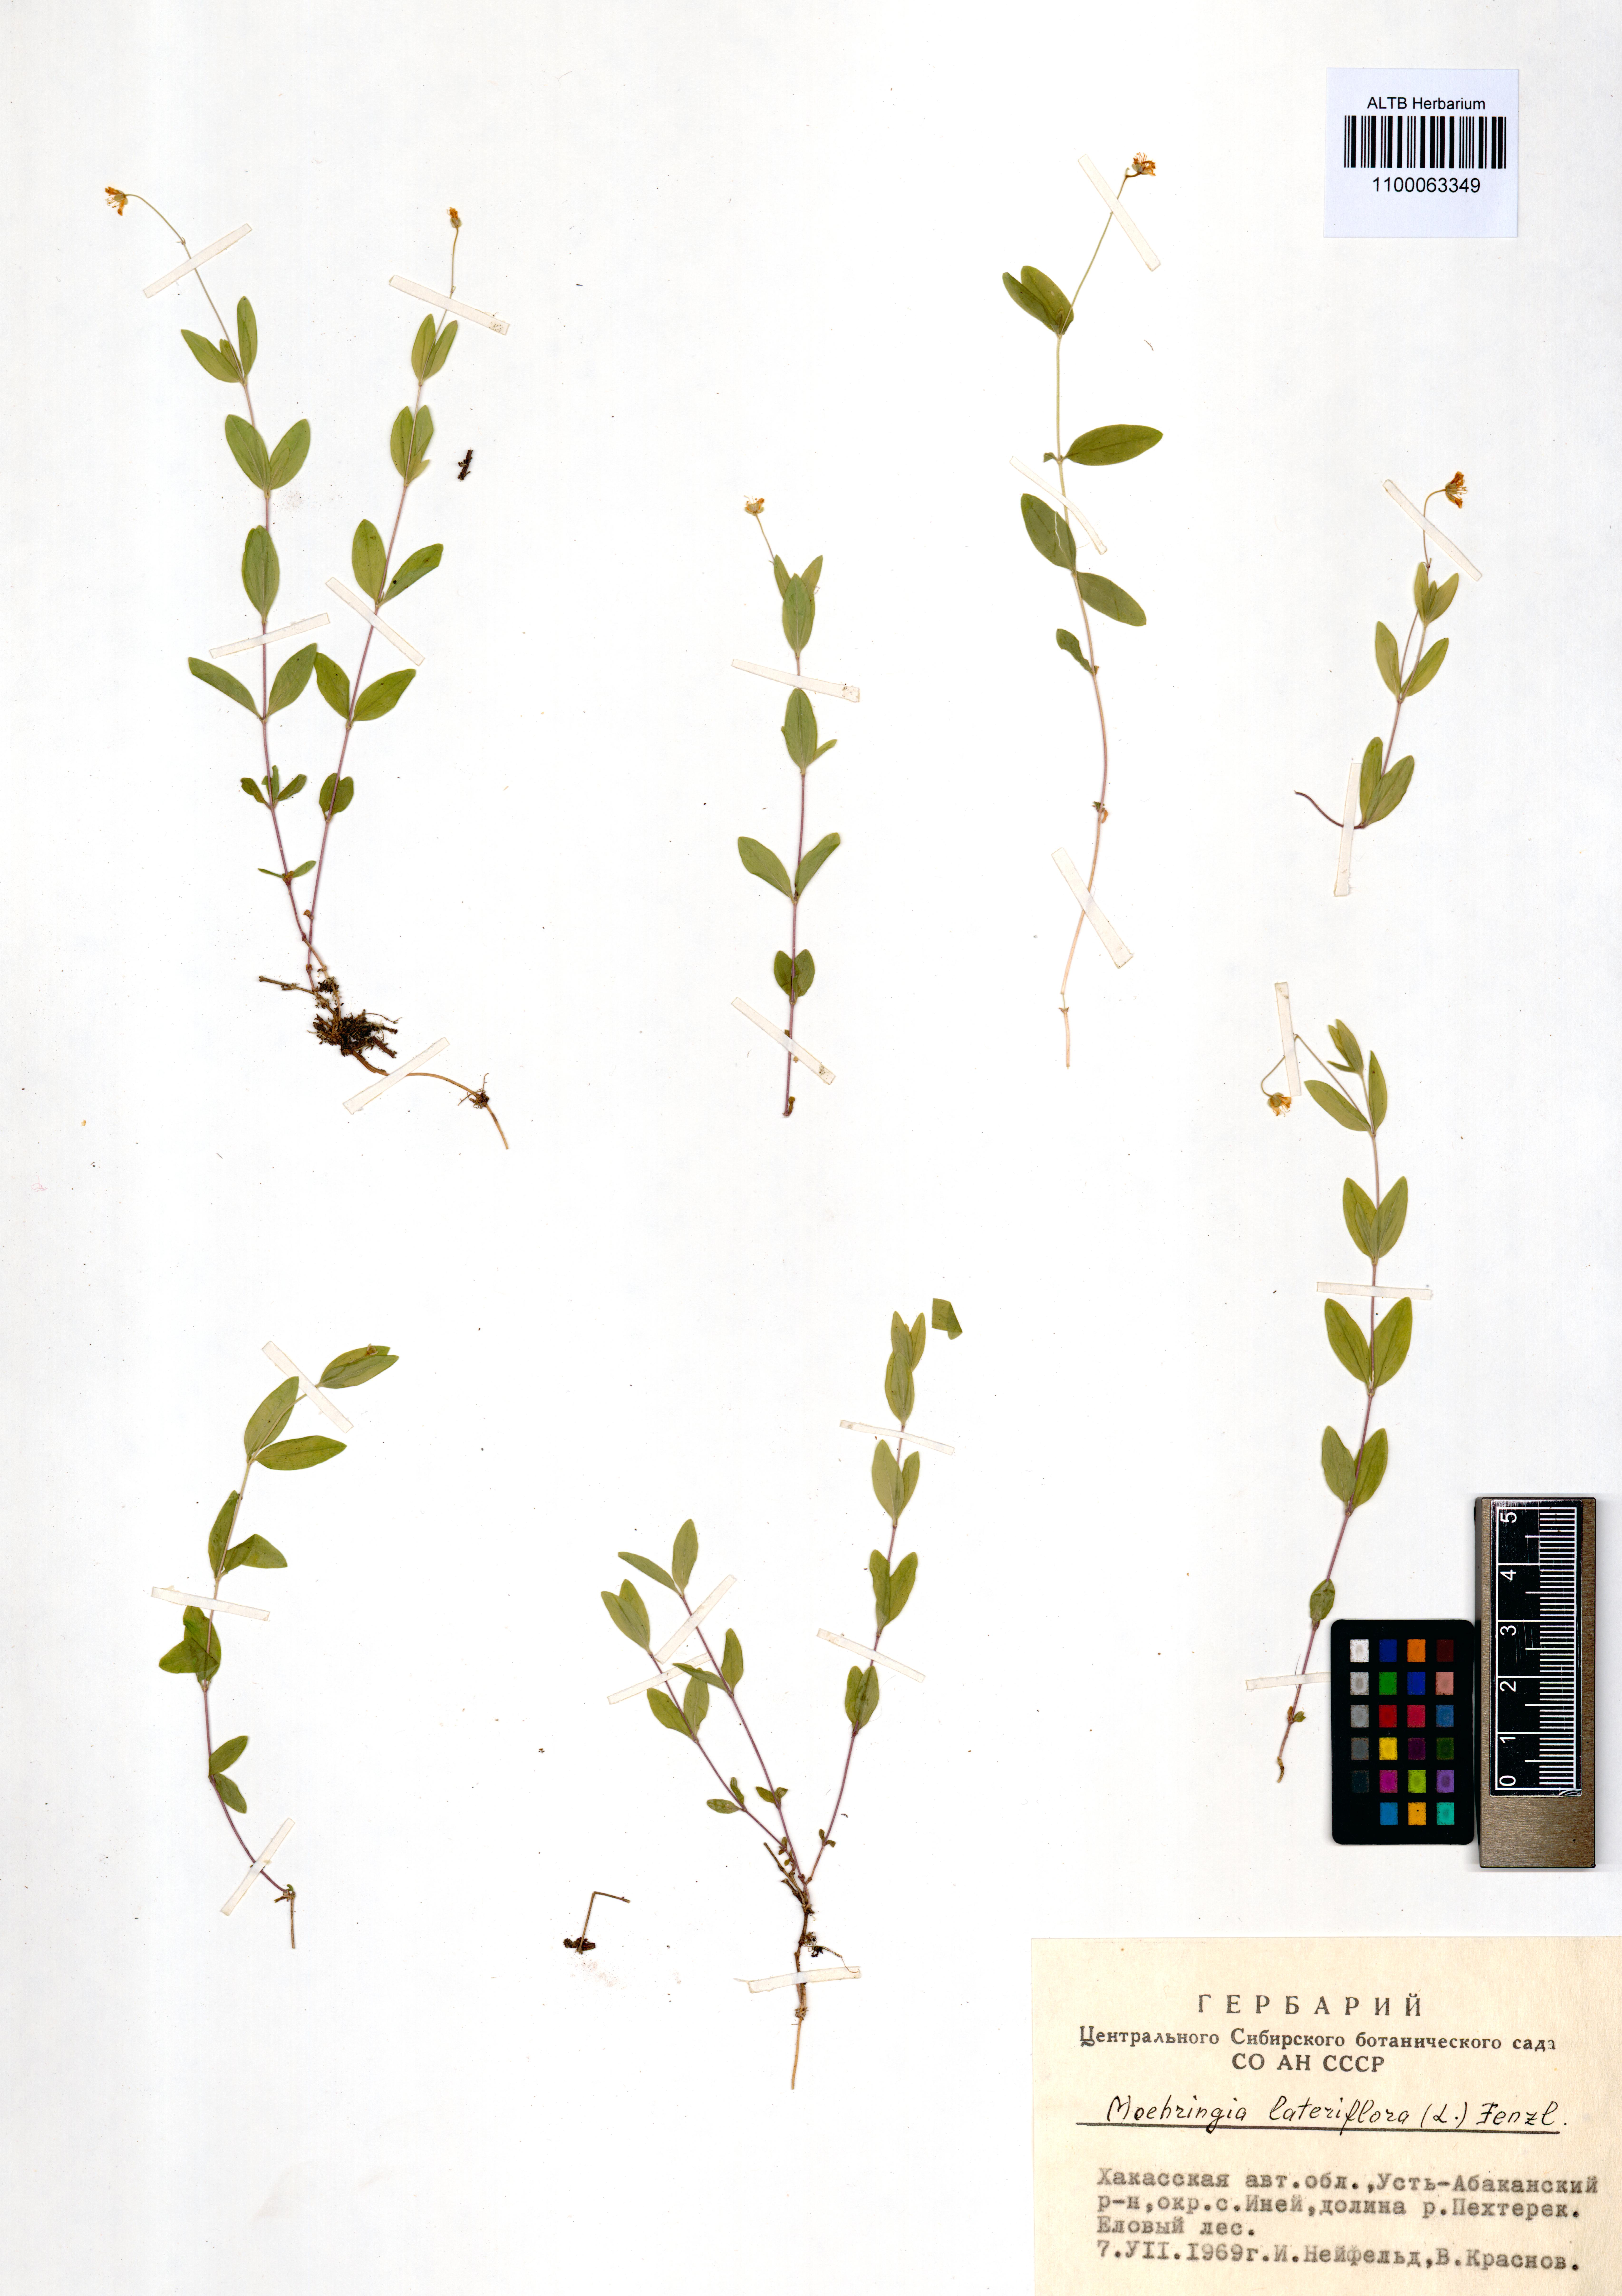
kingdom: Plantae
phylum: Tracheophyta
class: Magnoliopsida
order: Caryophyllales
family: Caryophyllaceae
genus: Moehringia
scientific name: Moehringia lateriflora
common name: Blunt-leaved sandwort
